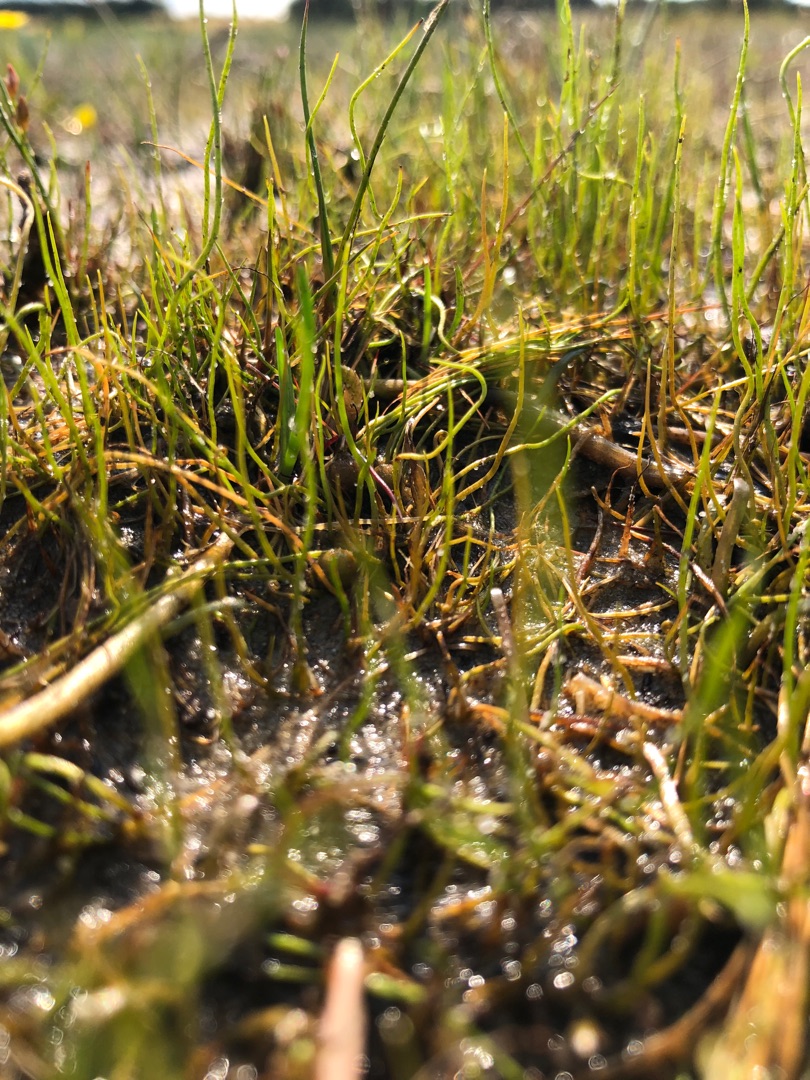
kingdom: Plantae
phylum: Tracheophyta
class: Polypodiopsida
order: Salviniales
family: Marsileaceae
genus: Pilularia
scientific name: Pilularia globulifera
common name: Pilledrager
